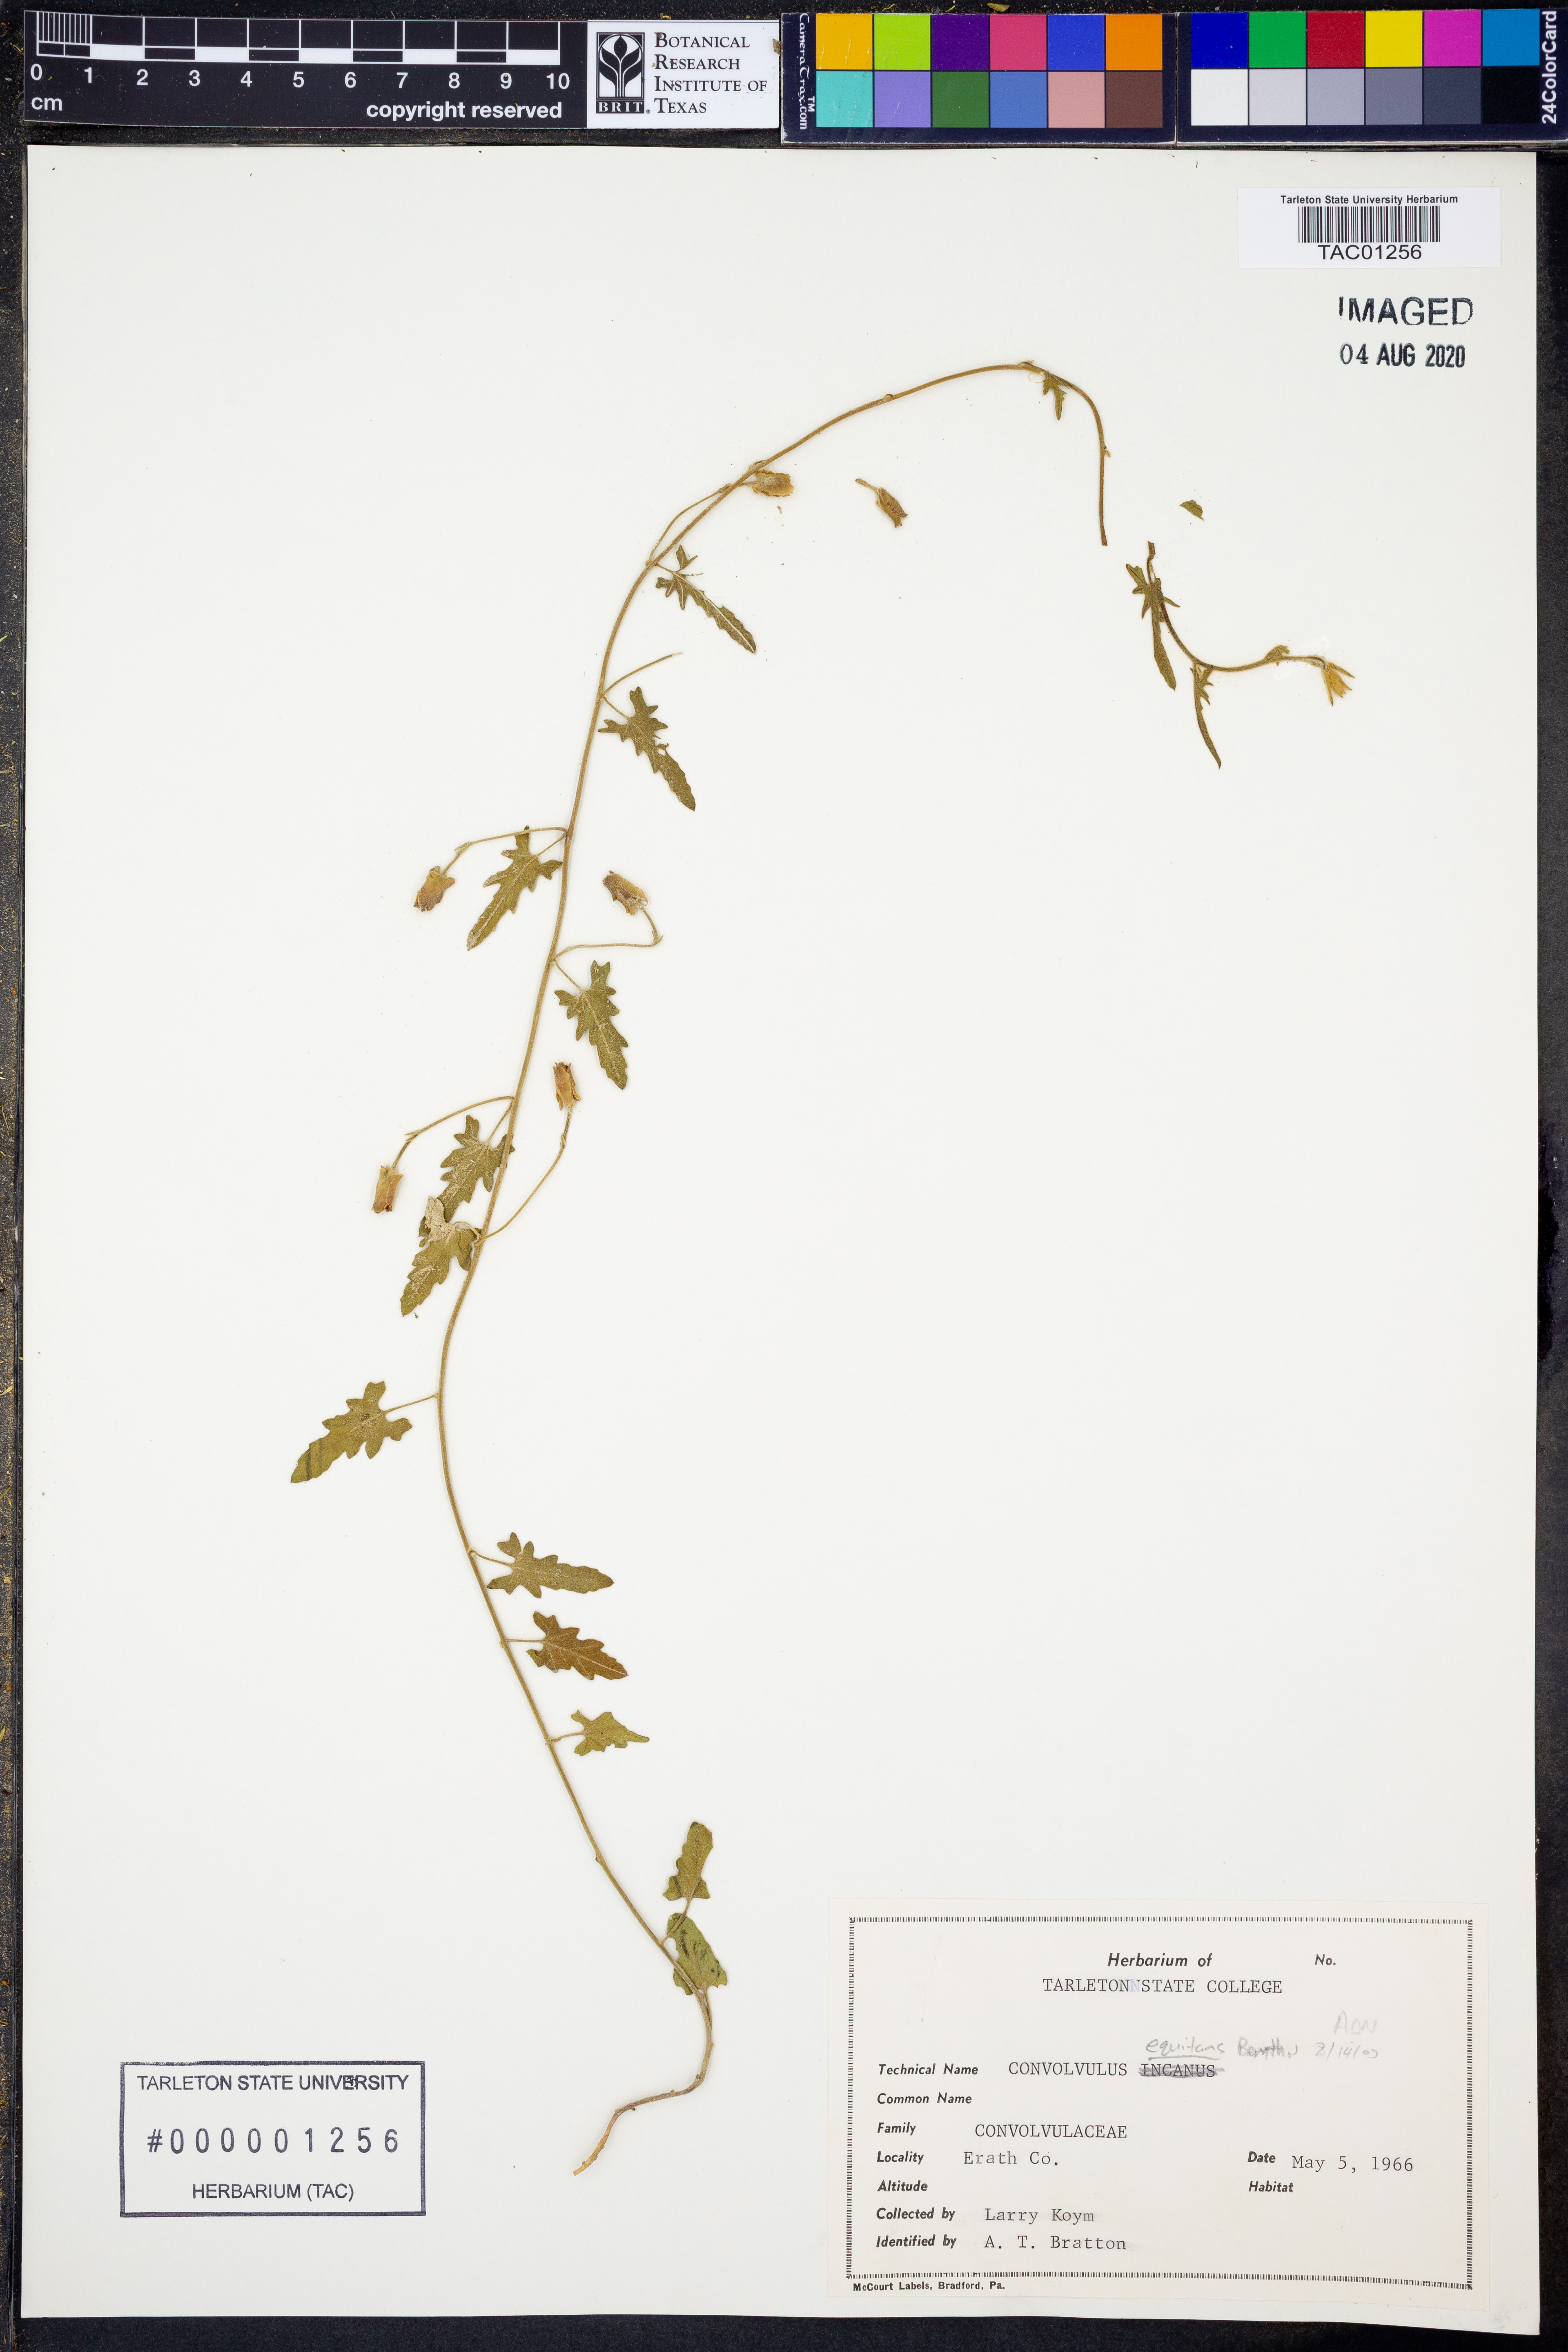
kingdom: Plantae
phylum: Tracheophyta
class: Magnoliopsida
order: Solanales
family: Convolvulaceae
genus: Convolvulus
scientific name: Convolvulus equitans
